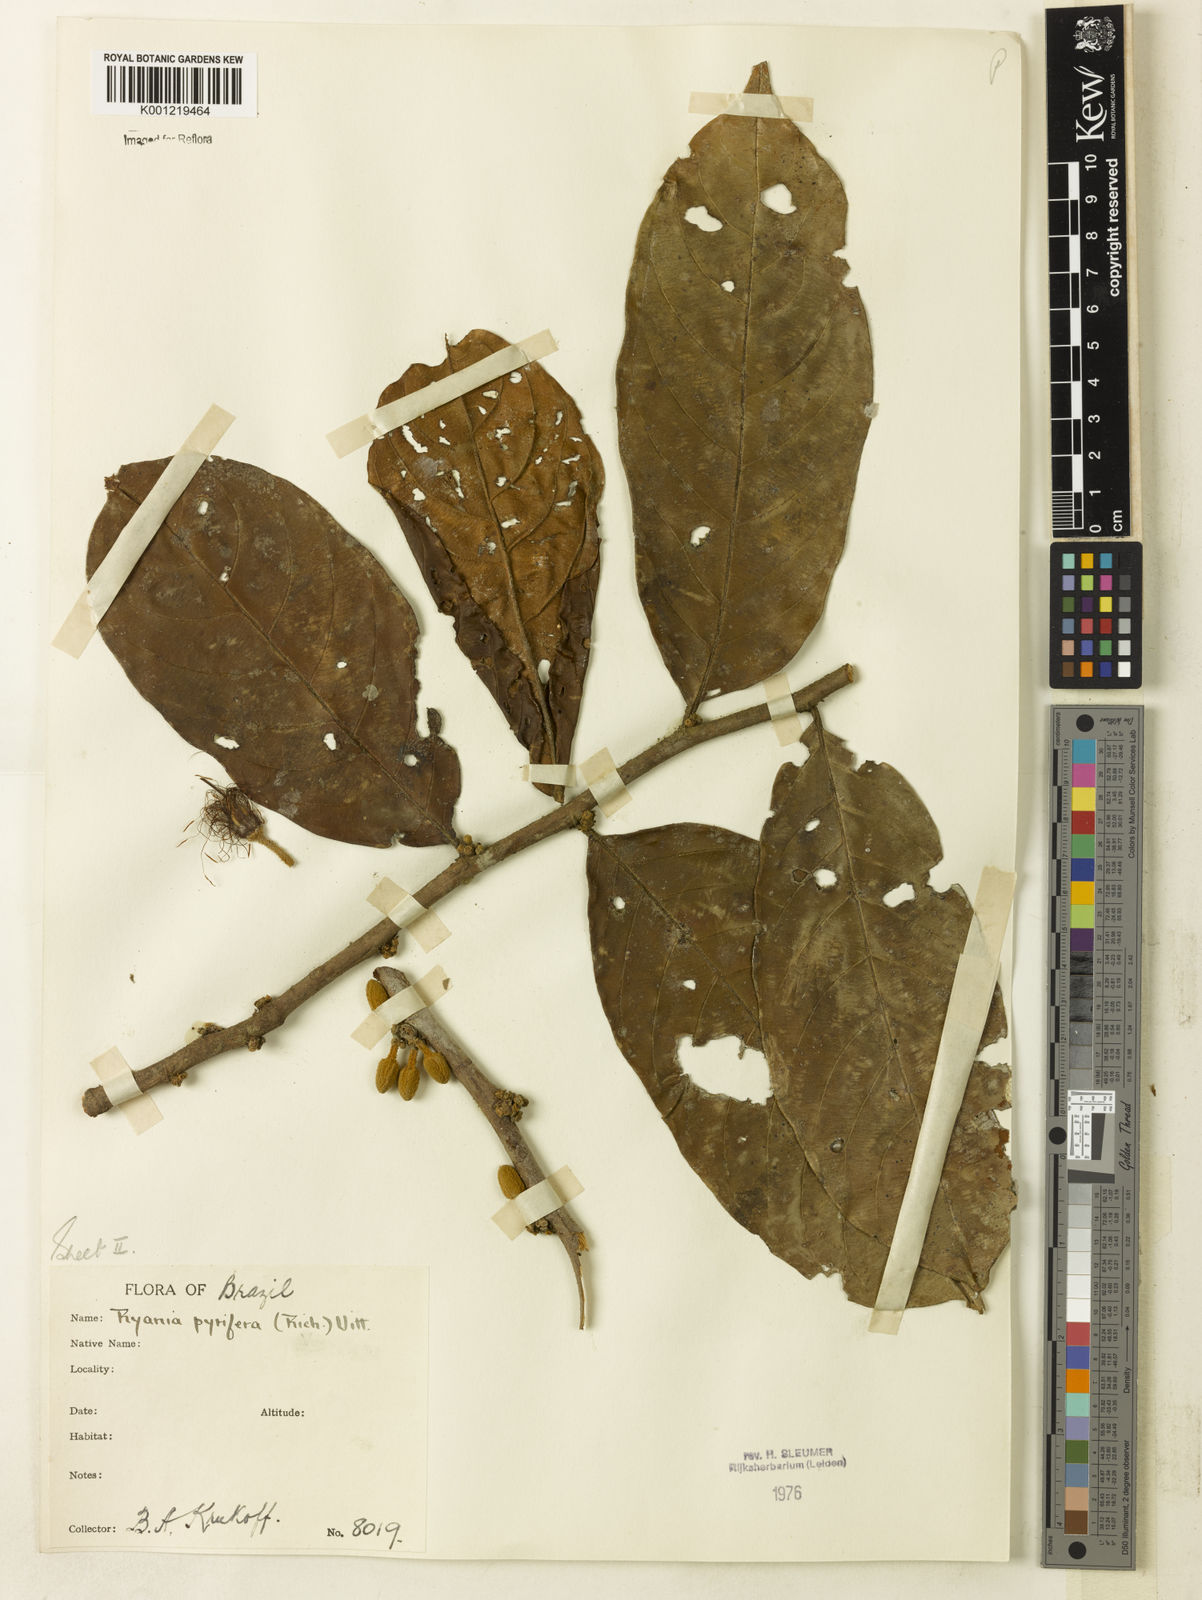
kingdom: Plantae
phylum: Tracheophyta
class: Magnoliopsida
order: Malpighiales
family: Salicaceae
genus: Ryania
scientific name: Ryania pyrifera
